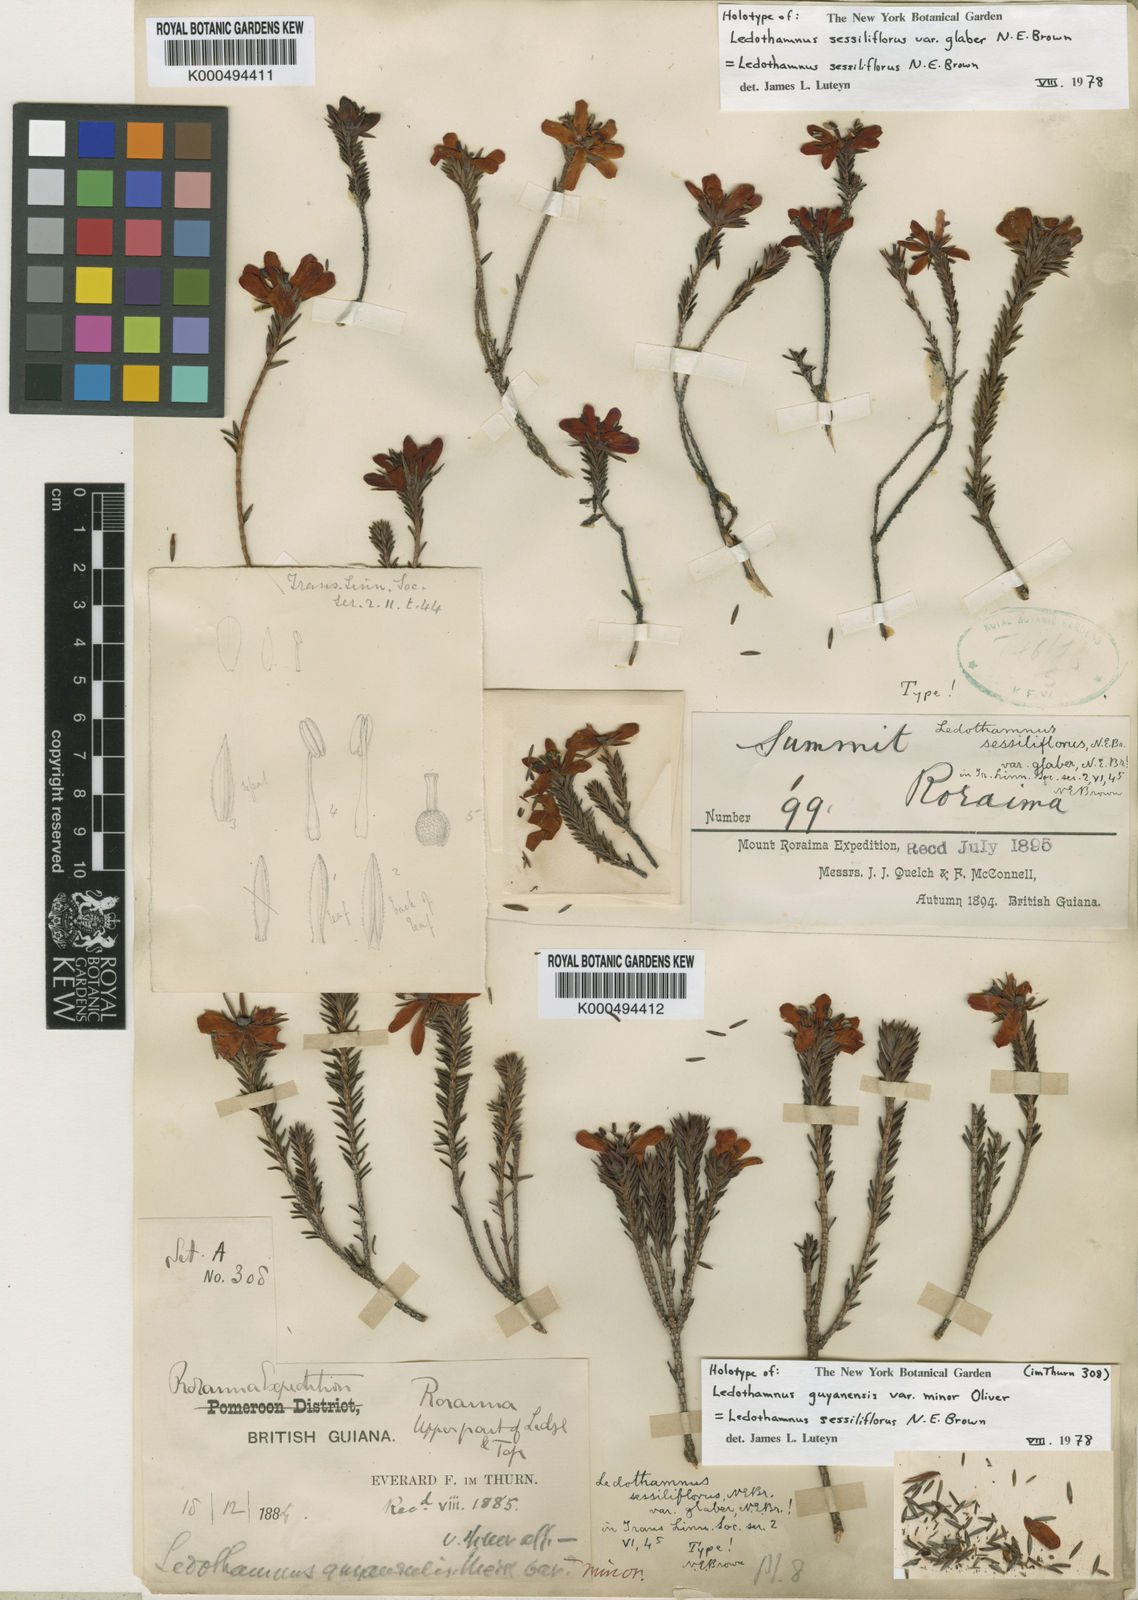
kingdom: Plantae
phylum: Tracheophyta
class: Magnoliopsida
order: Ericales
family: Ericaceae
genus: Ledothamnus
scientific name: Ledothamnus sessiliflorus
